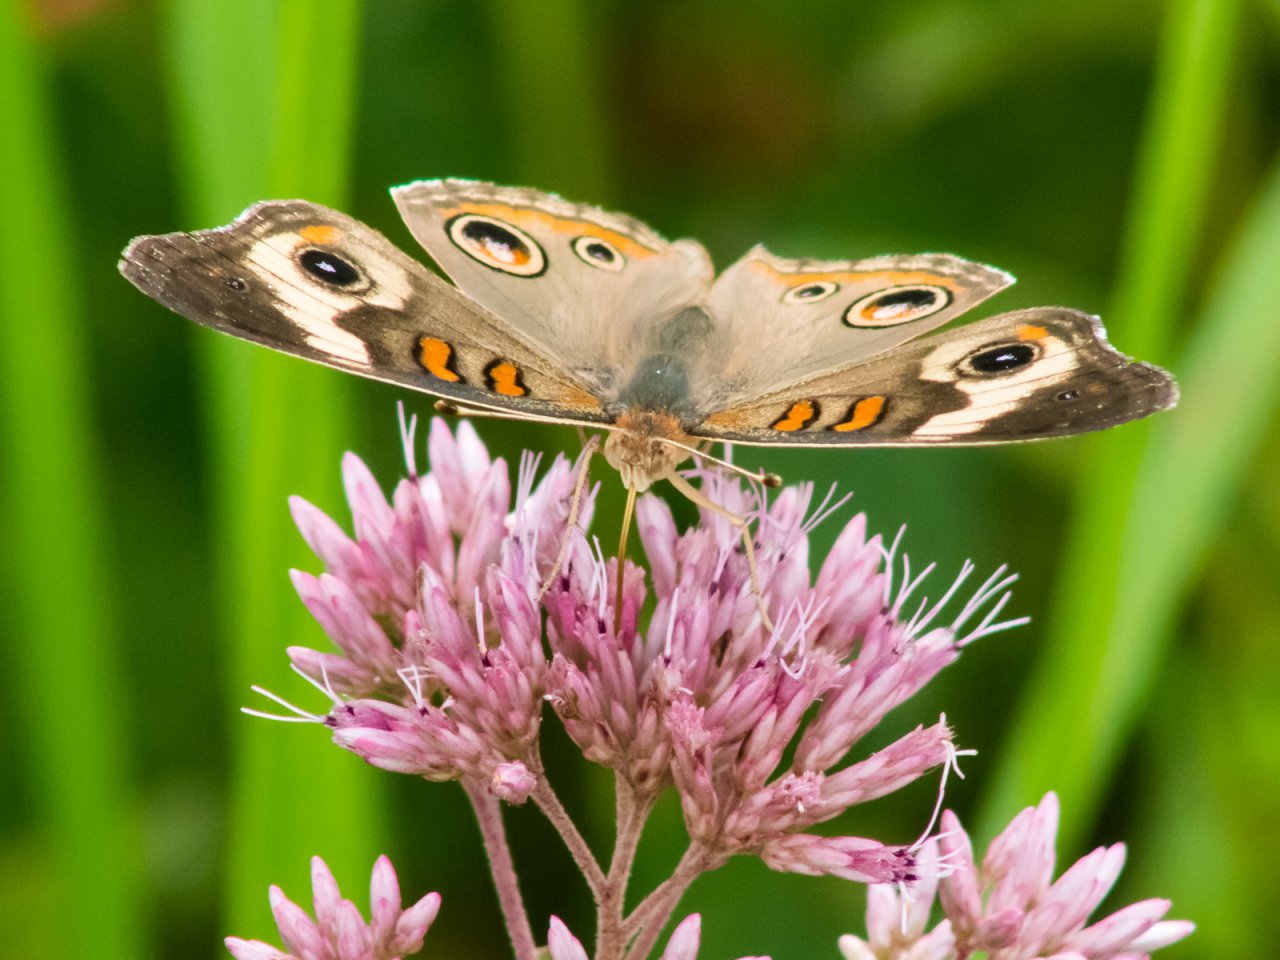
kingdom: Animalia
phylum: Arthropoda
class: Insecta
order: Lepidoptera
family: Nymphalidae
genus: Junonia
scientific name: Junonia coenia
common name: Common Buckeye
